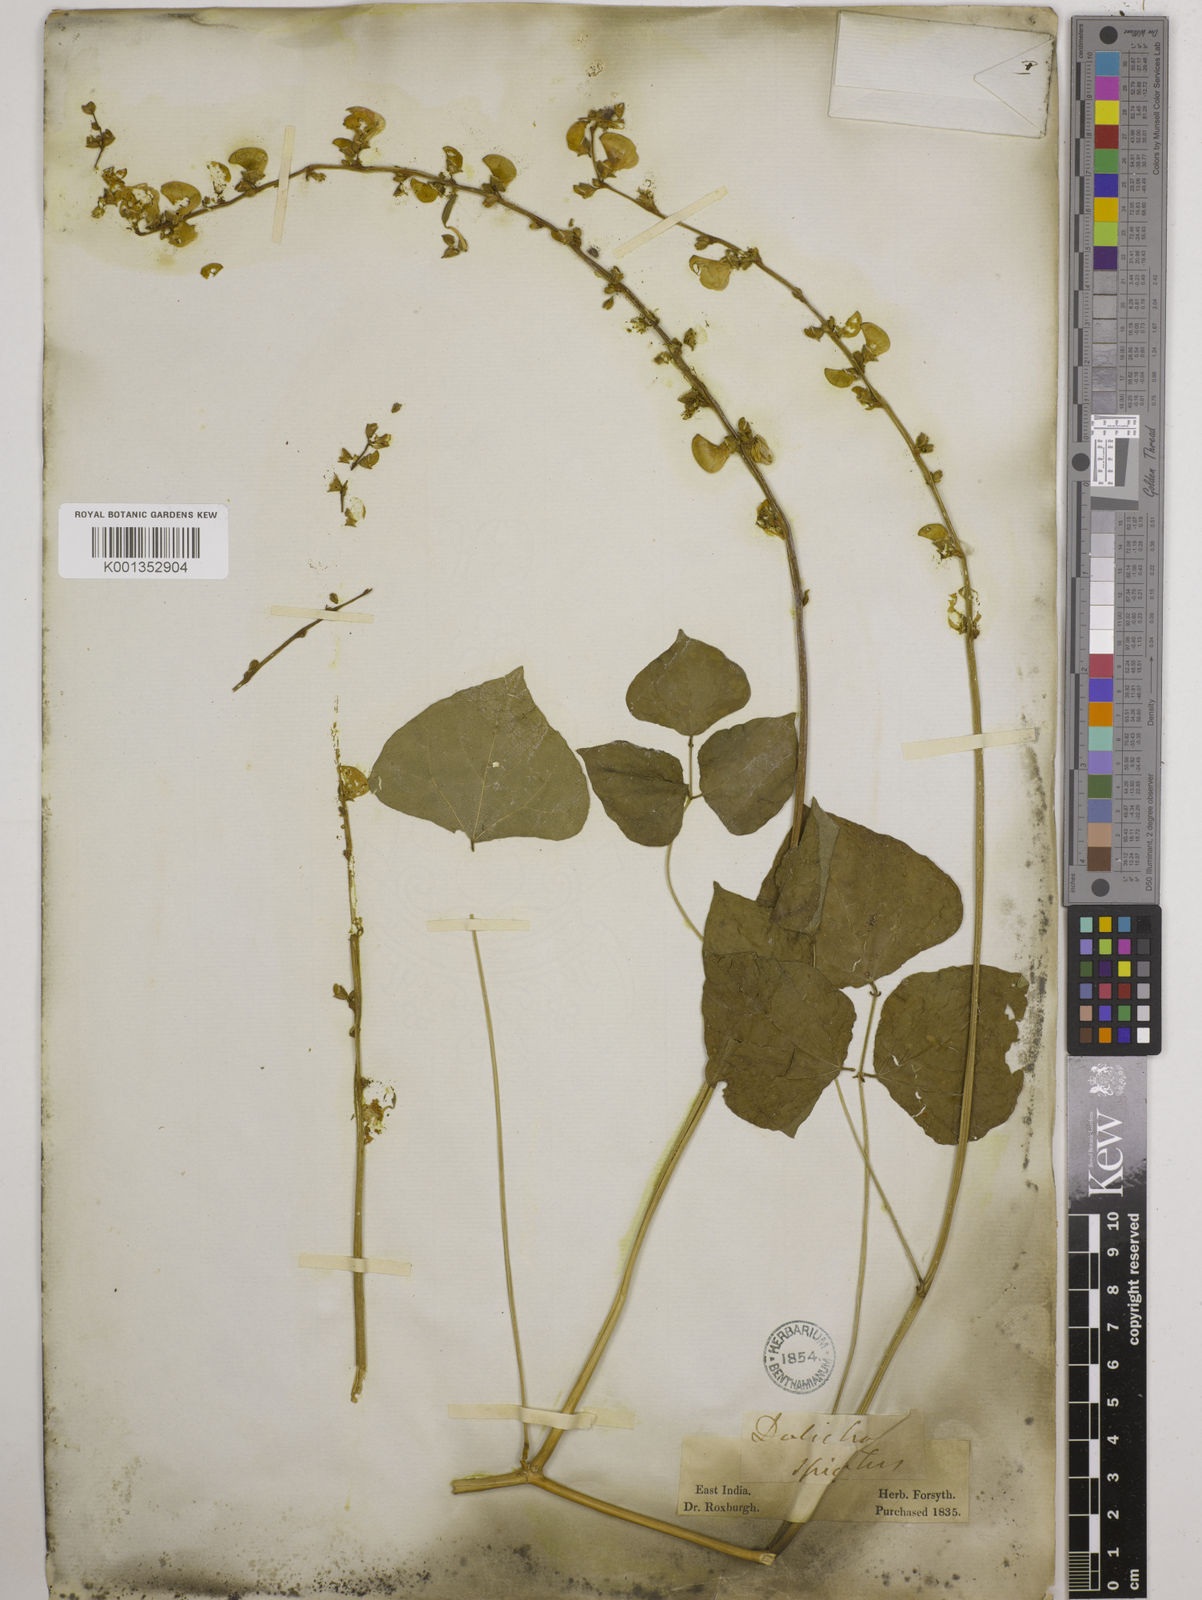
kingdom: Plantae
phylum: Tracheophyta
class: Magnoliopsida
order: Fabales
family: Fabaceae
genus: Lablab
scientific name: Lablab purpureus
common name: Lablab-bean
